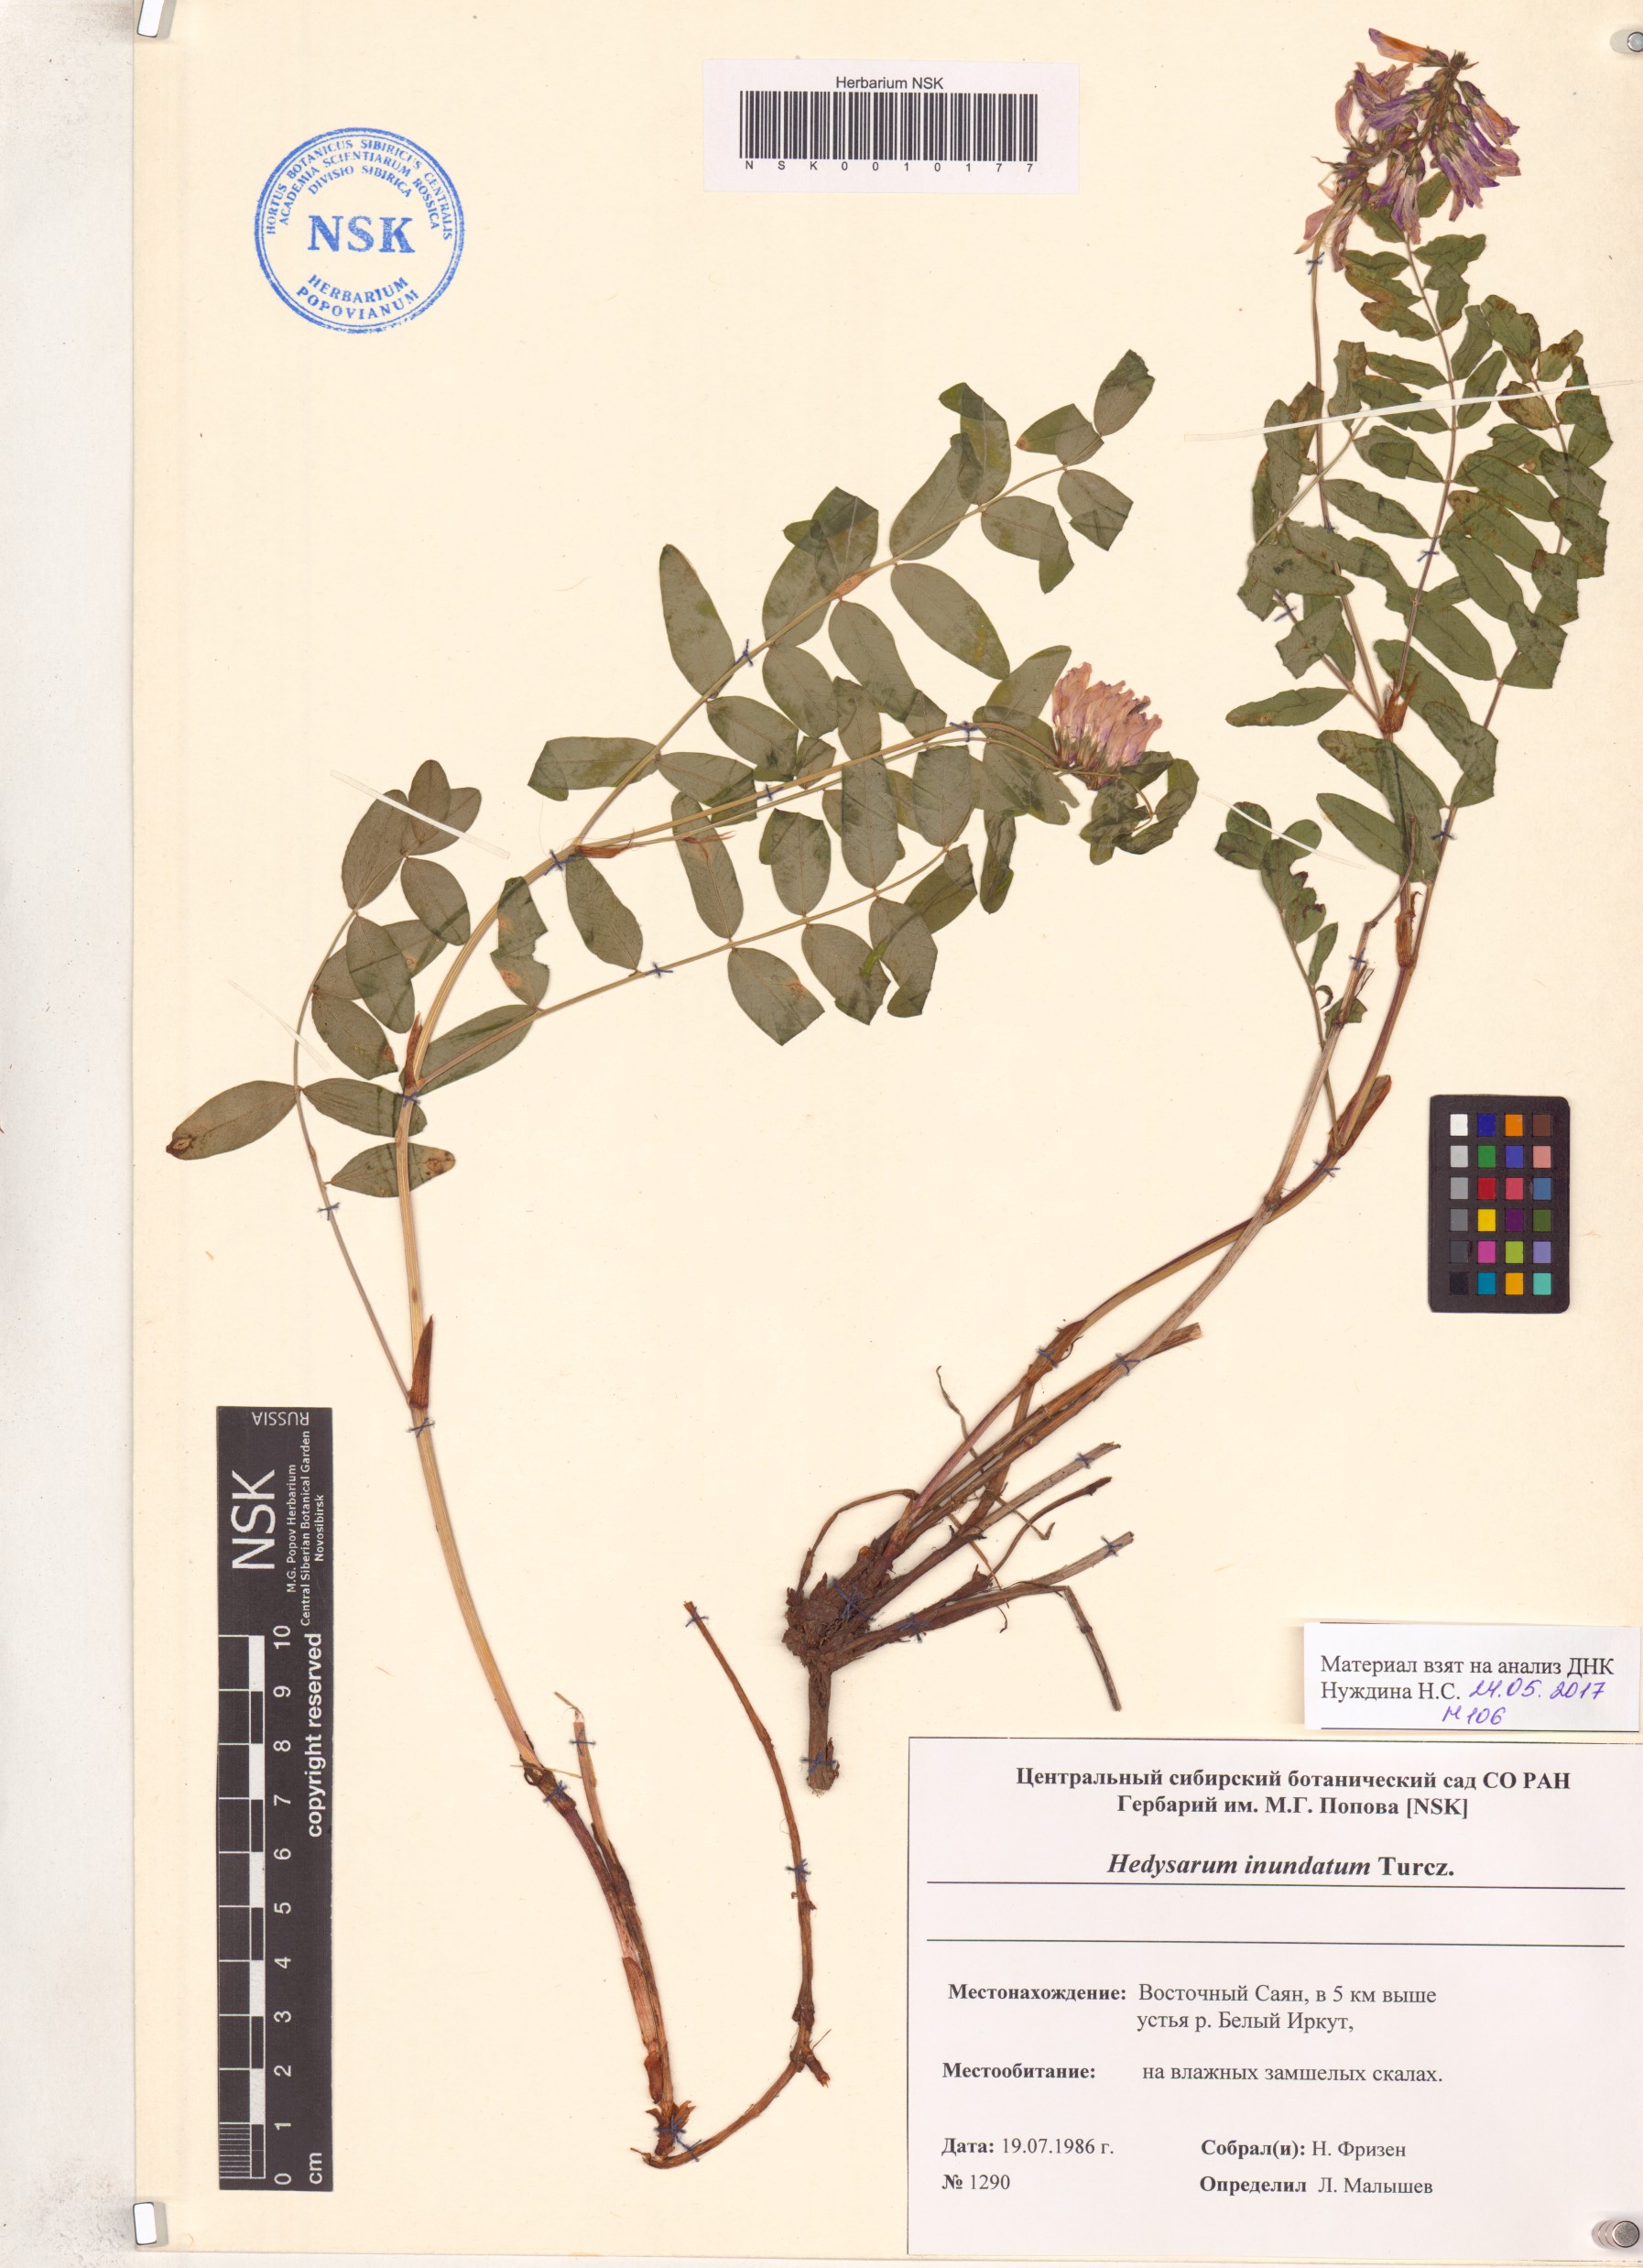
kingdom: Plantae
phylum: Tracheophyta
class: Magnoliopsida
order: Fabales
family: Fabaceae
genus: Hedysarum
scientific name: Hedysarum inundatum
